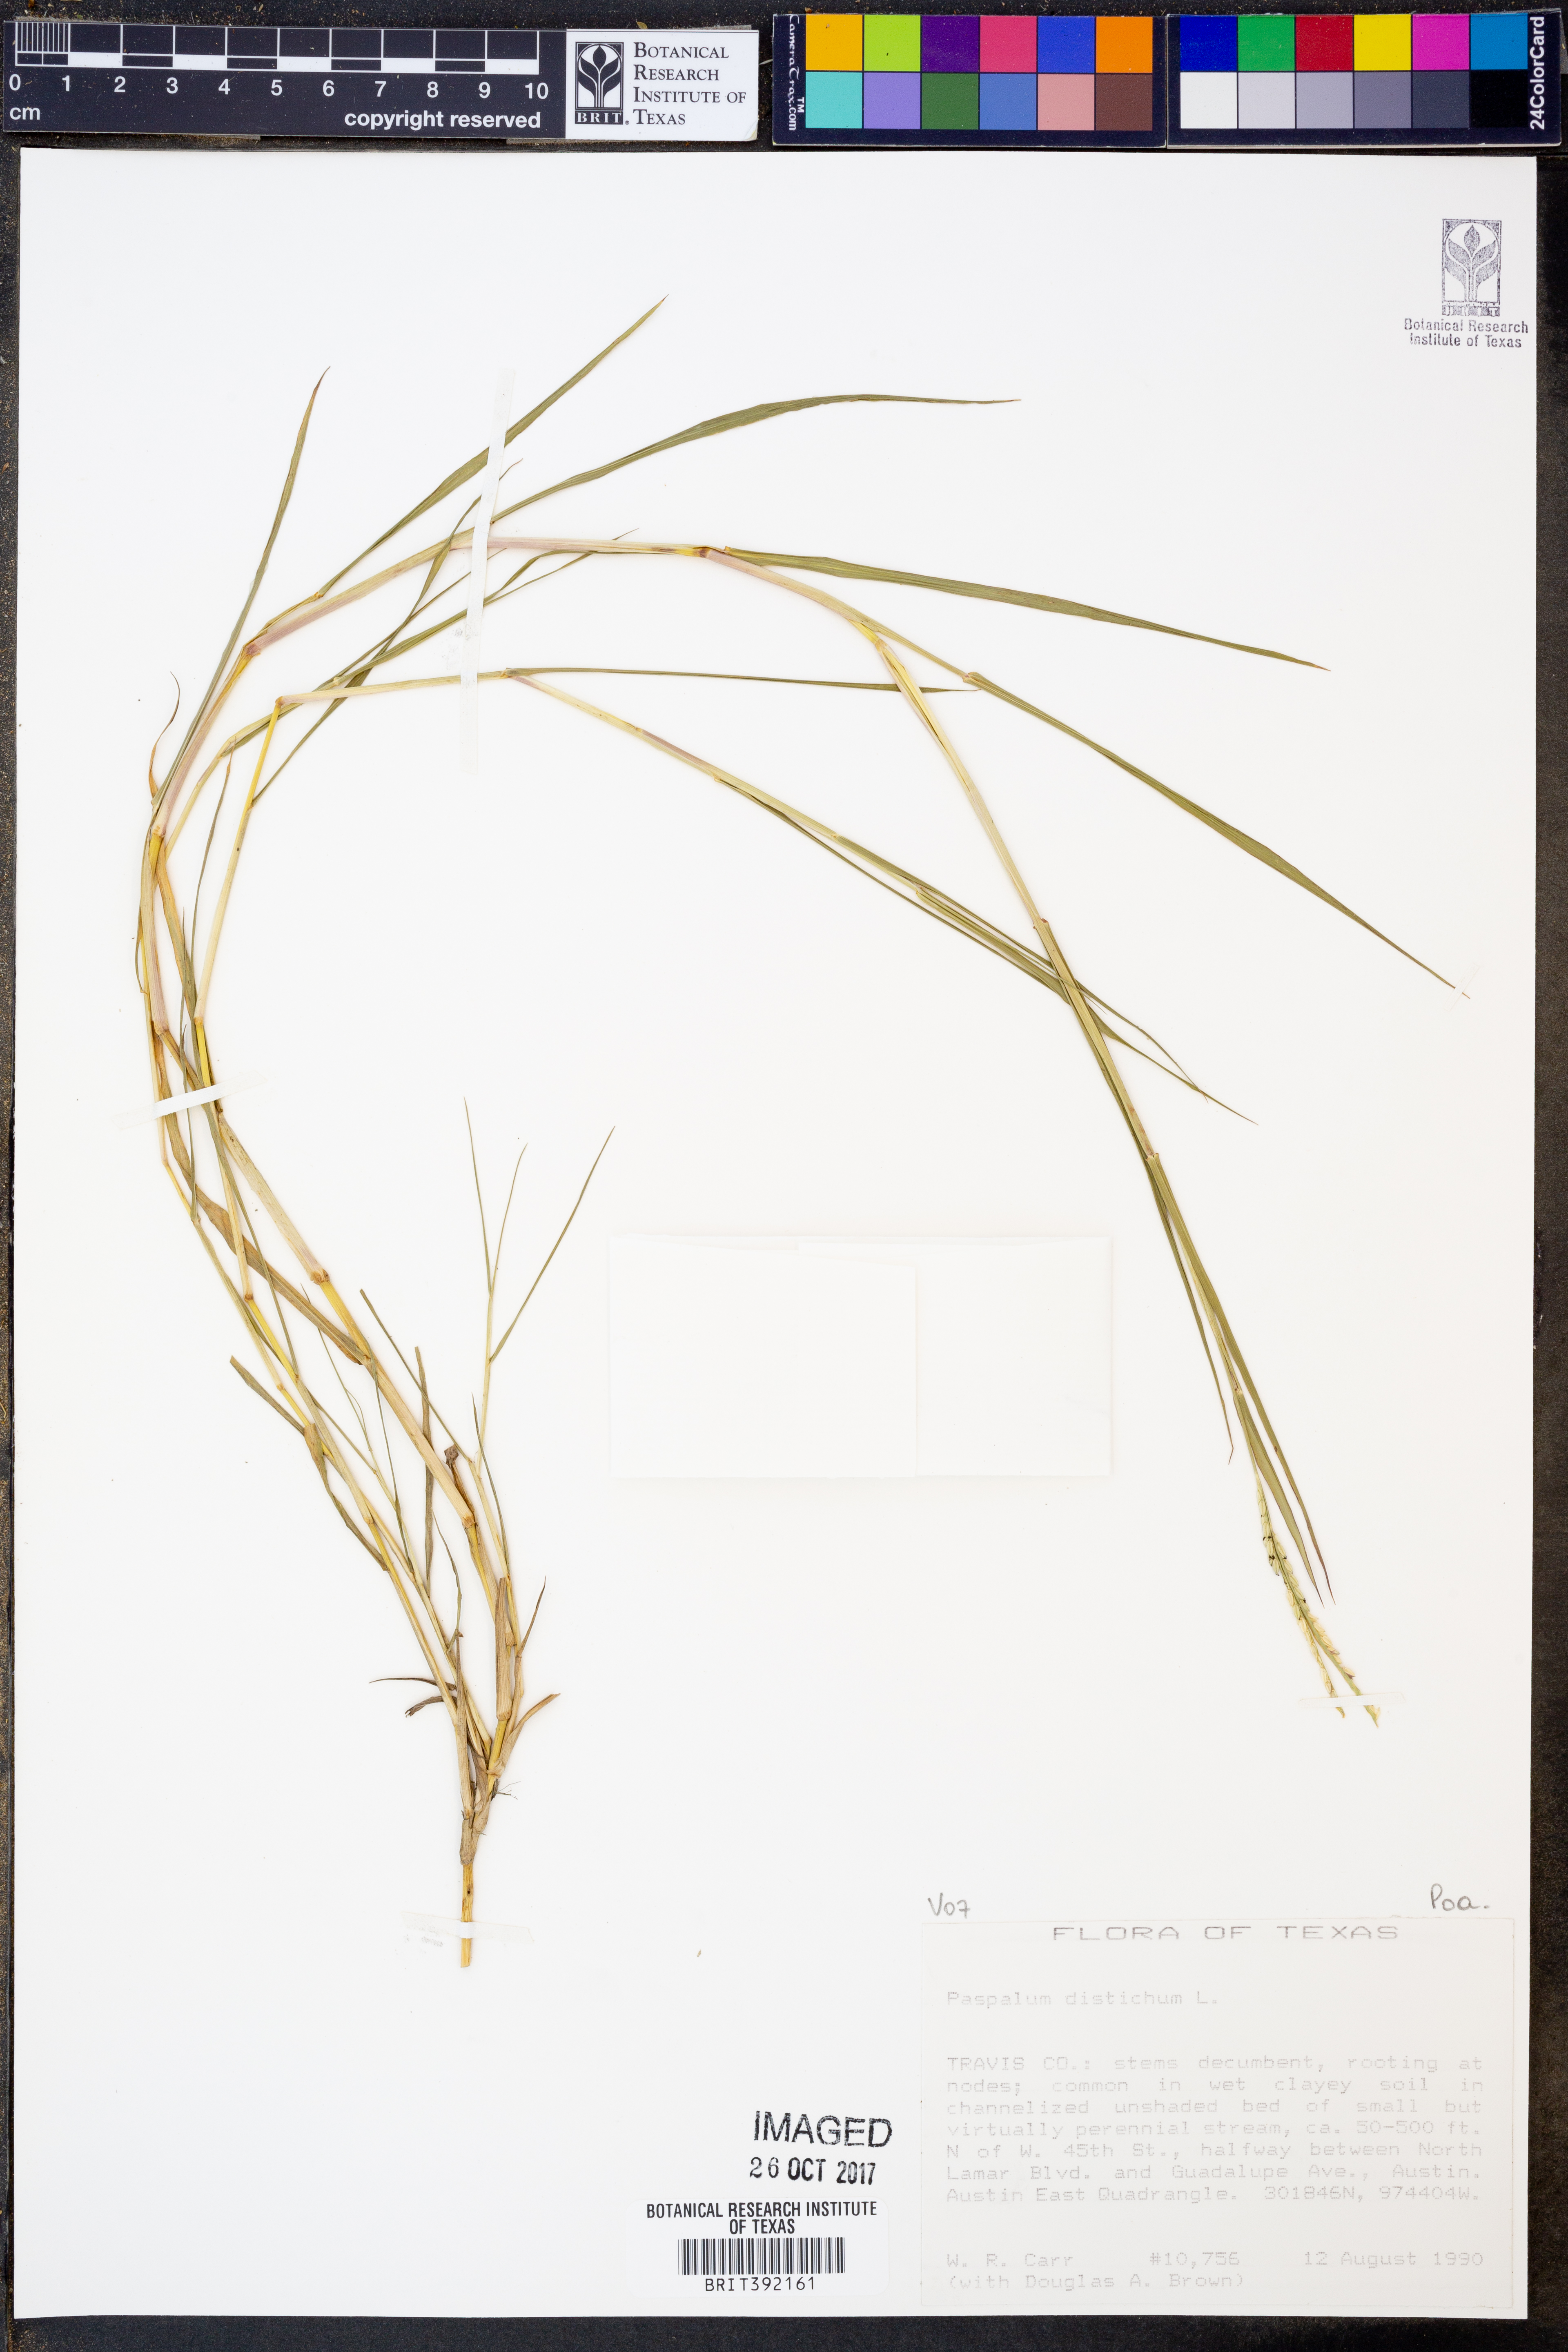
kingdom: Plantae
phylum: Tracheophyta
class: Liliopsida
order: Poales
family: Poaceae
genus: Paspalum
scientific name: Paspalum distichum
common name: Knotgrass
